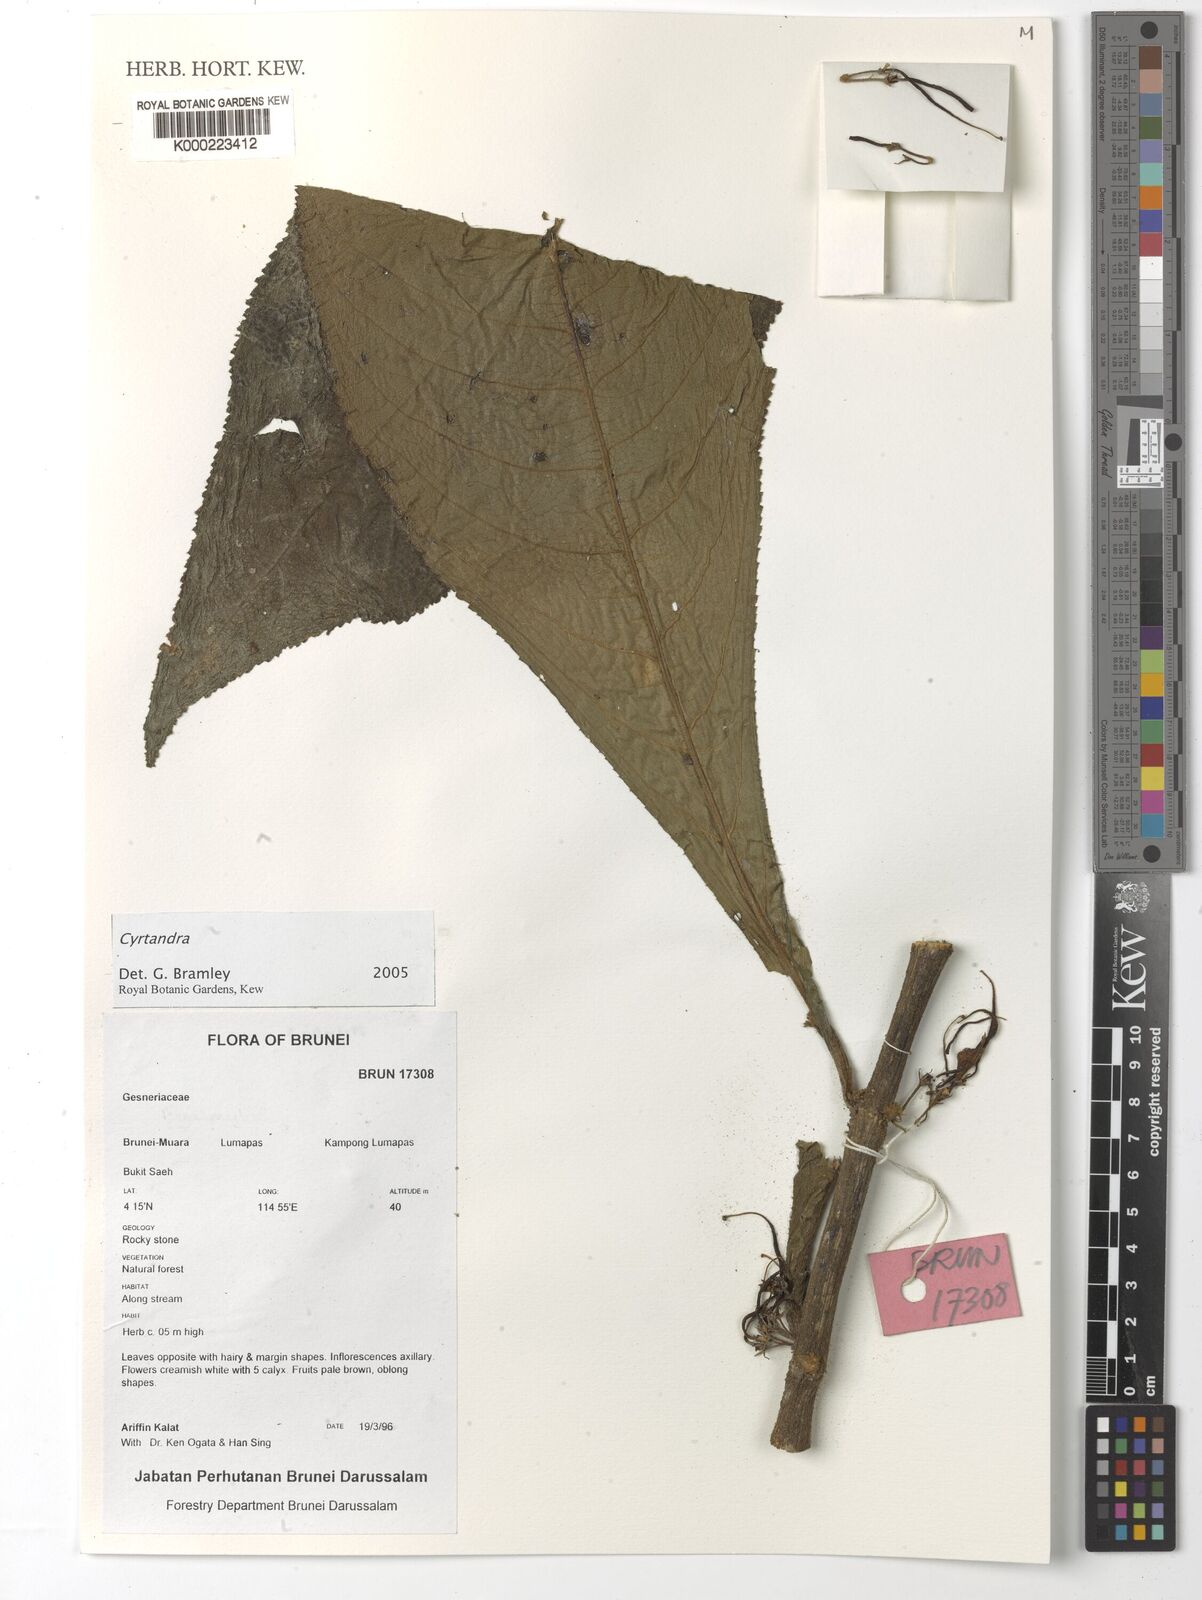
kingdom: Plantae
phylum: Tracheophyta
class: Magnoliopsida
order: Lamiales
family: Gesneriaceae
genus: Cyrtandra
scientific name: Cyrtandra
